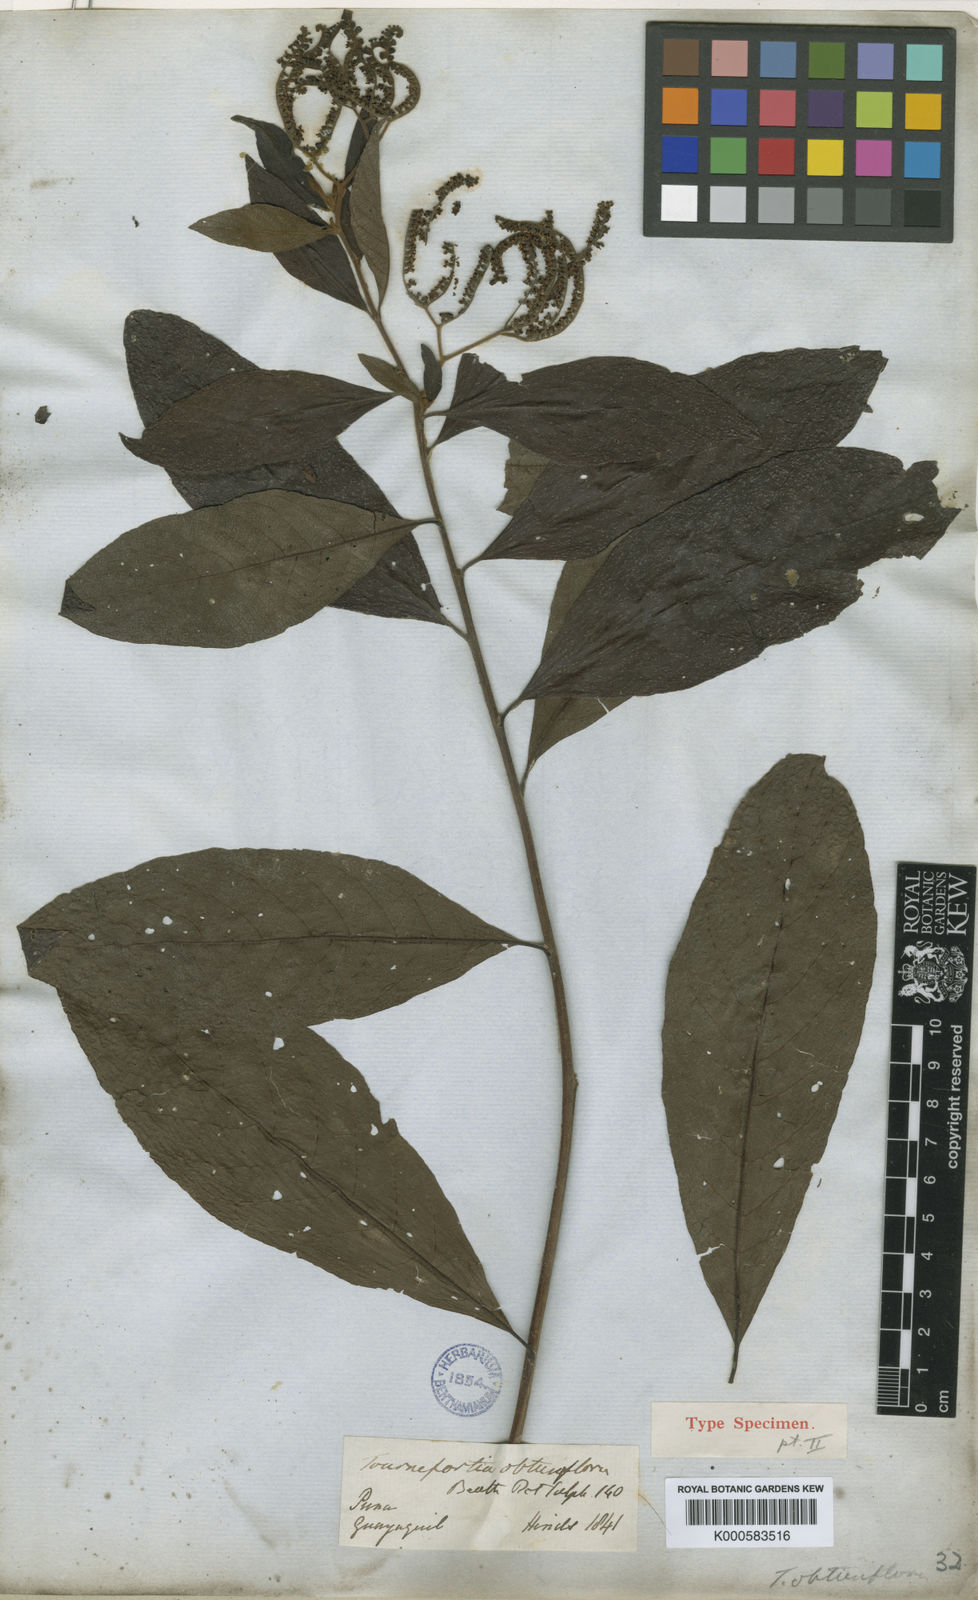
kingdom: Plantae
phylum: Tracheophyta
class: Magnoliopsida
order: Boraginales
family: Heliotropiaceae
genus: Tournefortia
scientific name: Tournefortia microcalyx
